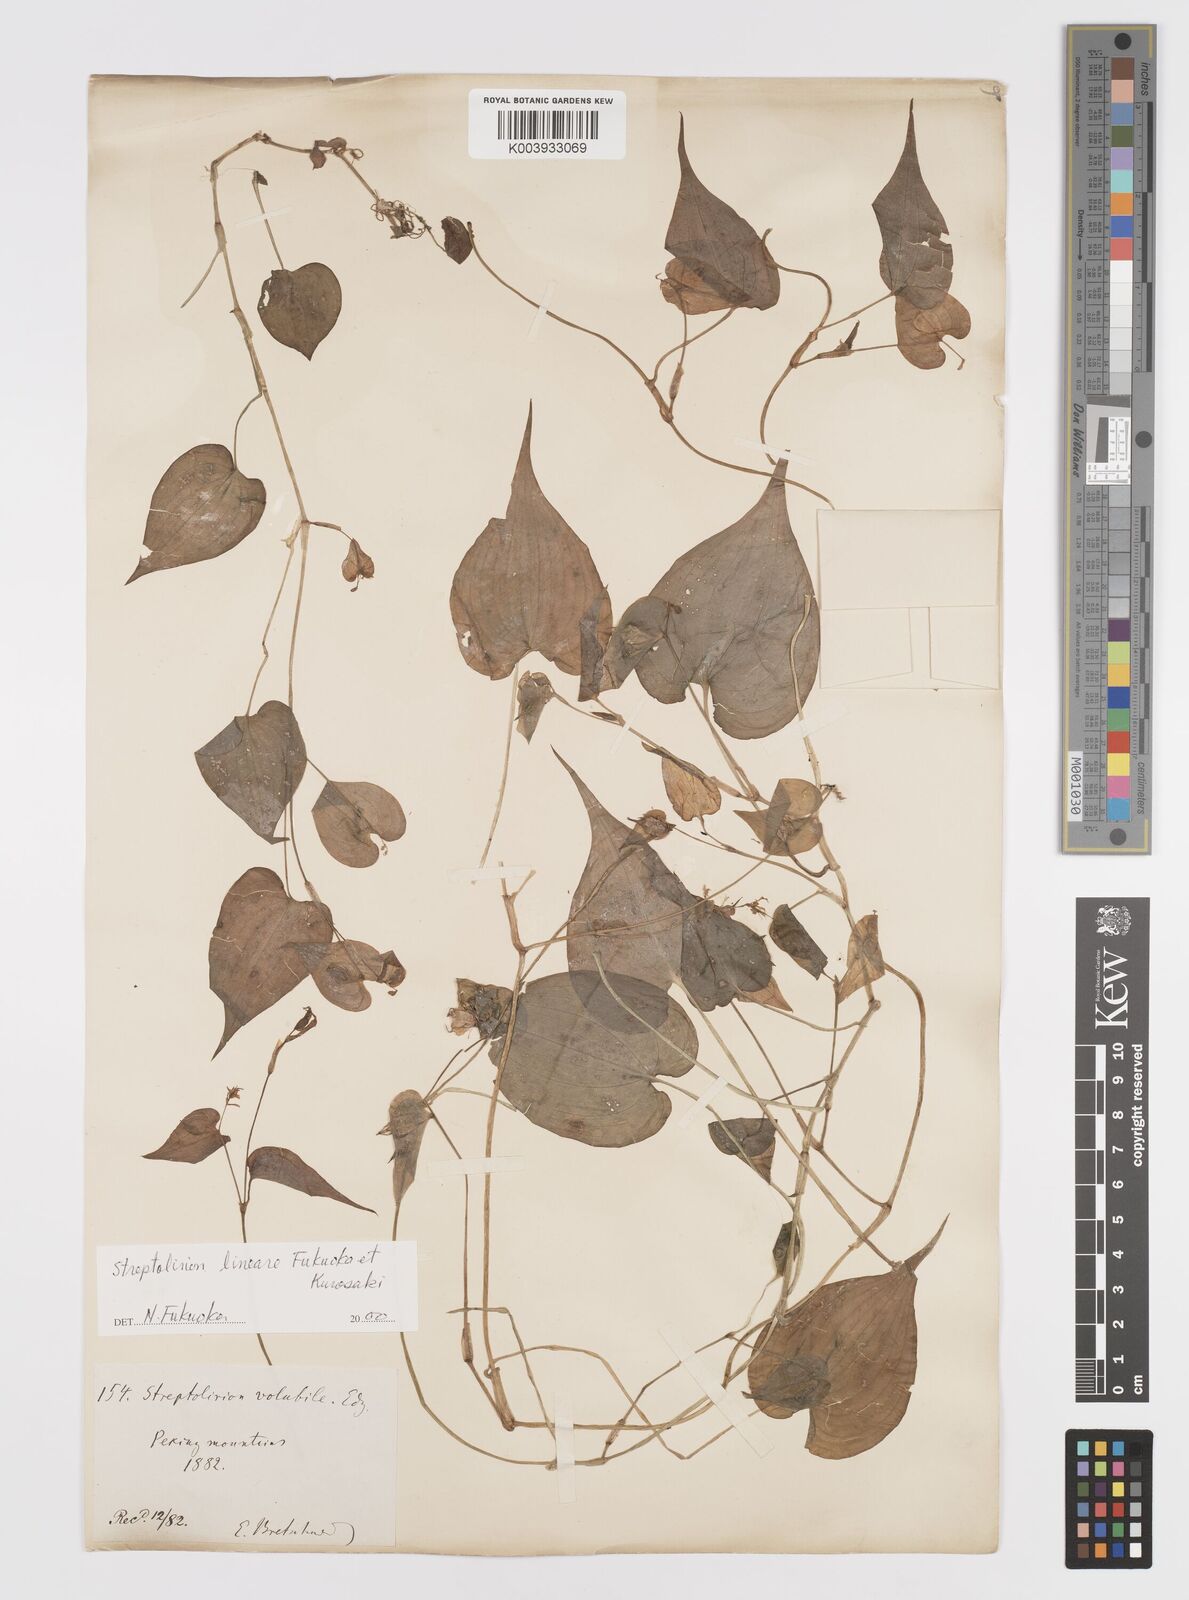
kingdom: Plantae
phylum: Tracheophyta
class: Liliopsida
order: Commelinales
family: Commelinaceae
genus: Streptolirion
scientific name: Streptolirion lineare
